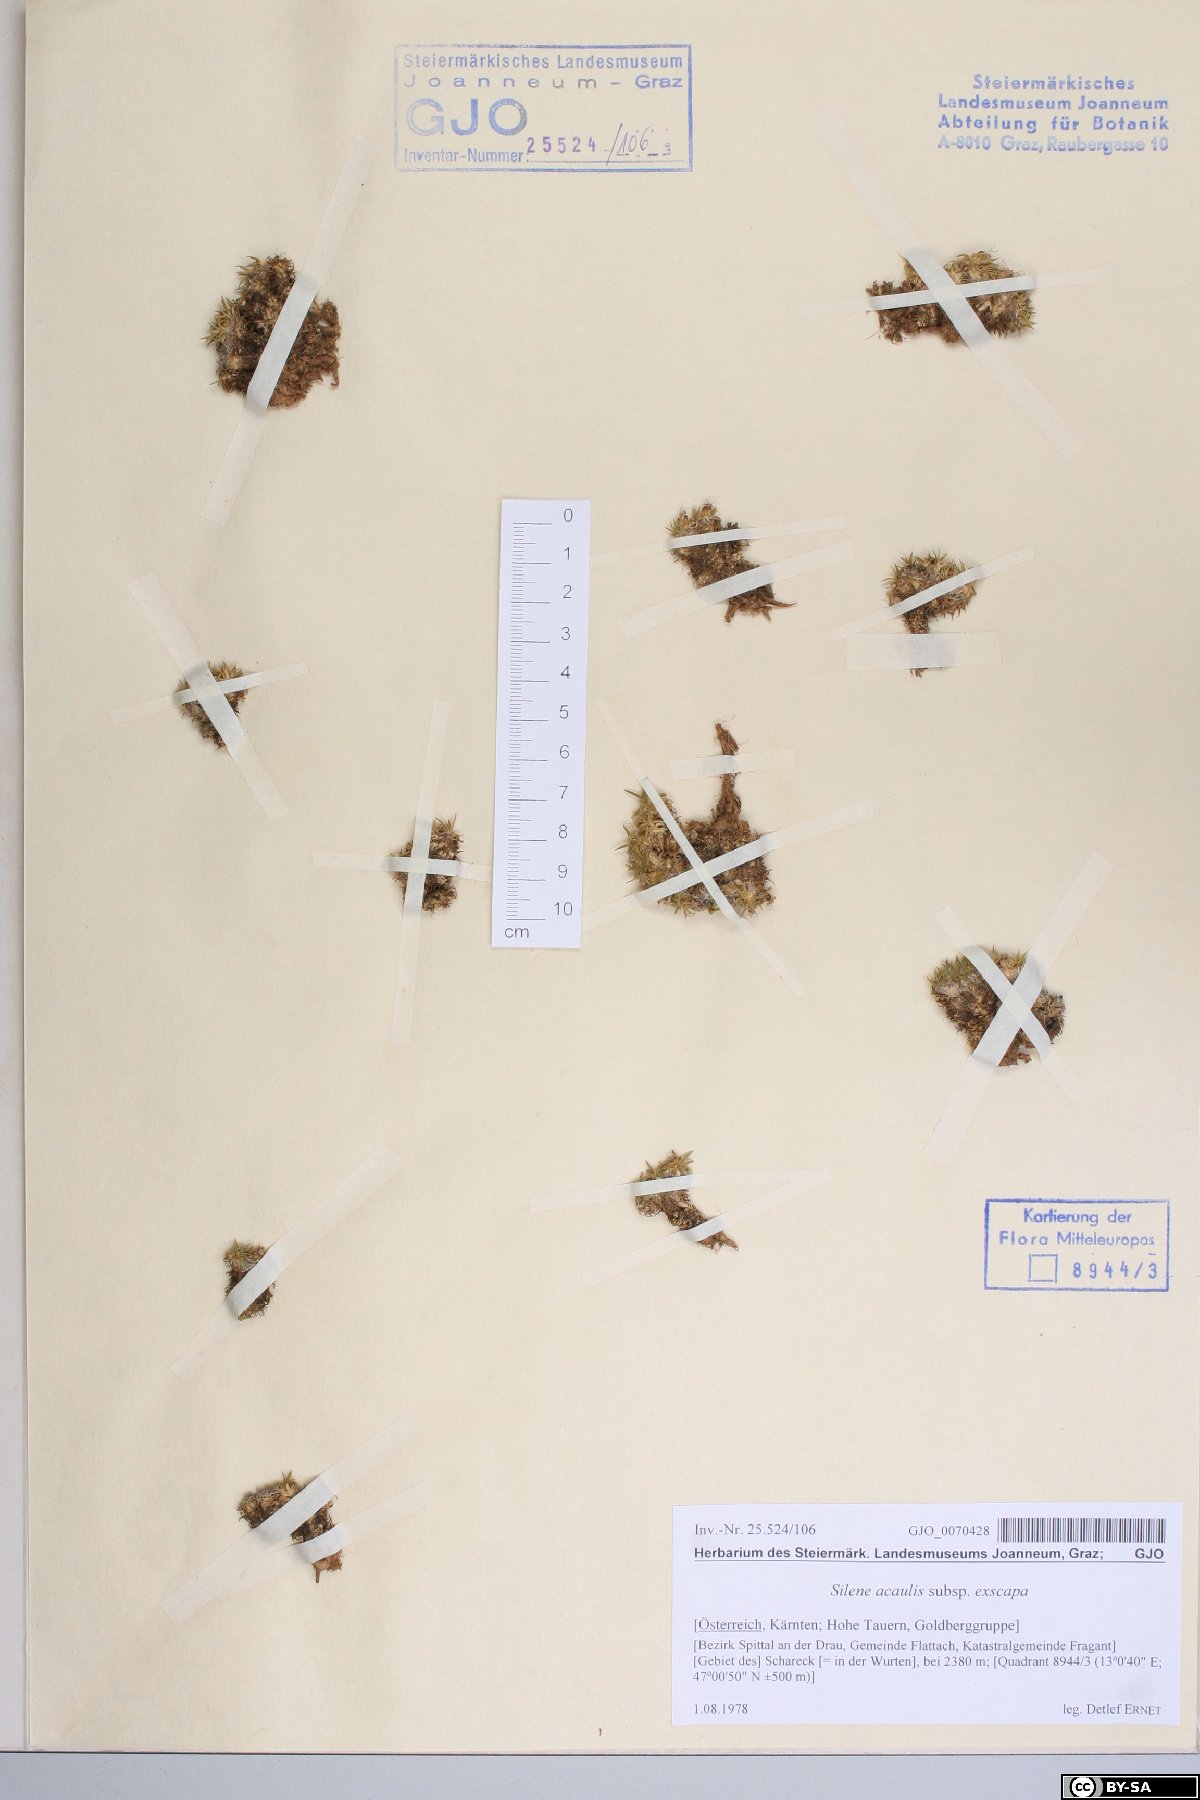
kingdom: Plantae
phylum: Tracheophyta
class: Magnoliopsida
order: Caryophyllales
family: Caryophyllaceae
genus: Silene
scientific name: Silene acaulis
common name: Moss campion
